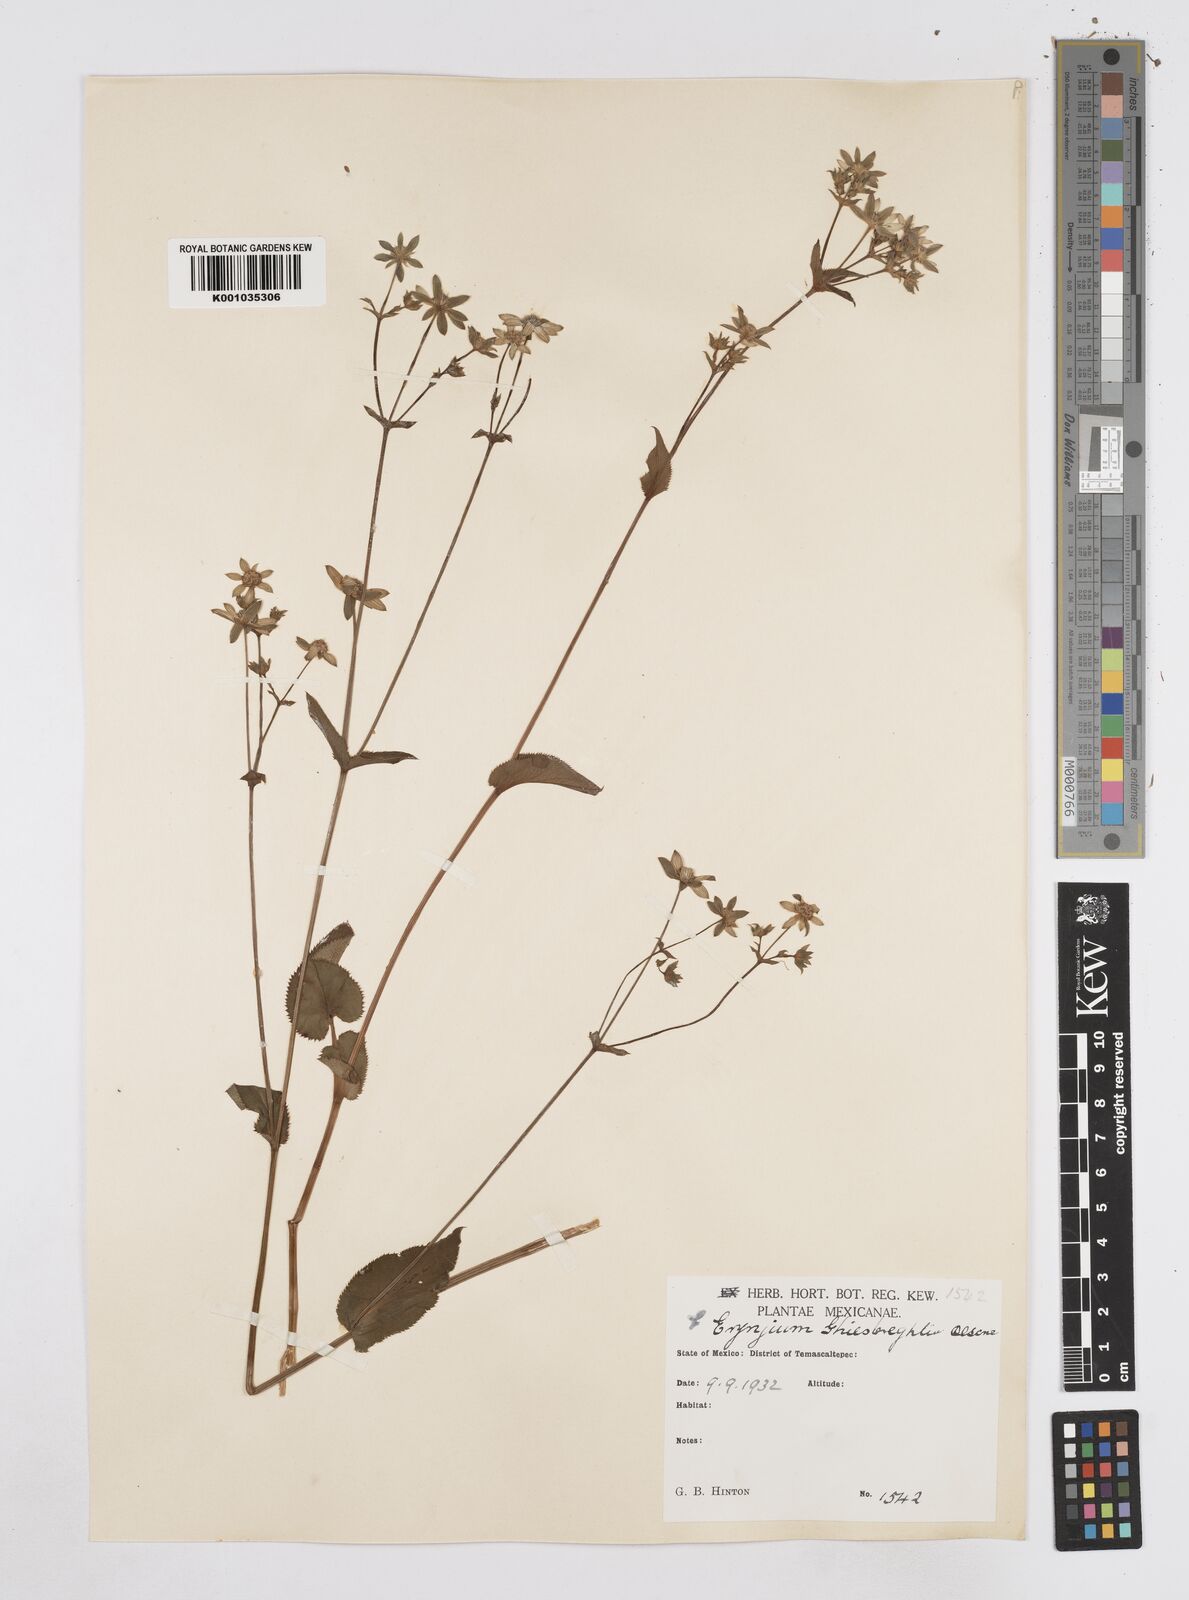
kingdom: Plantae
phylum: Tracheophyta
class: Magnoliopsida
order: Apiales
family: Apiaceae
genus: Eryngium
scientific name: Eryngium ghiesbreghtii
